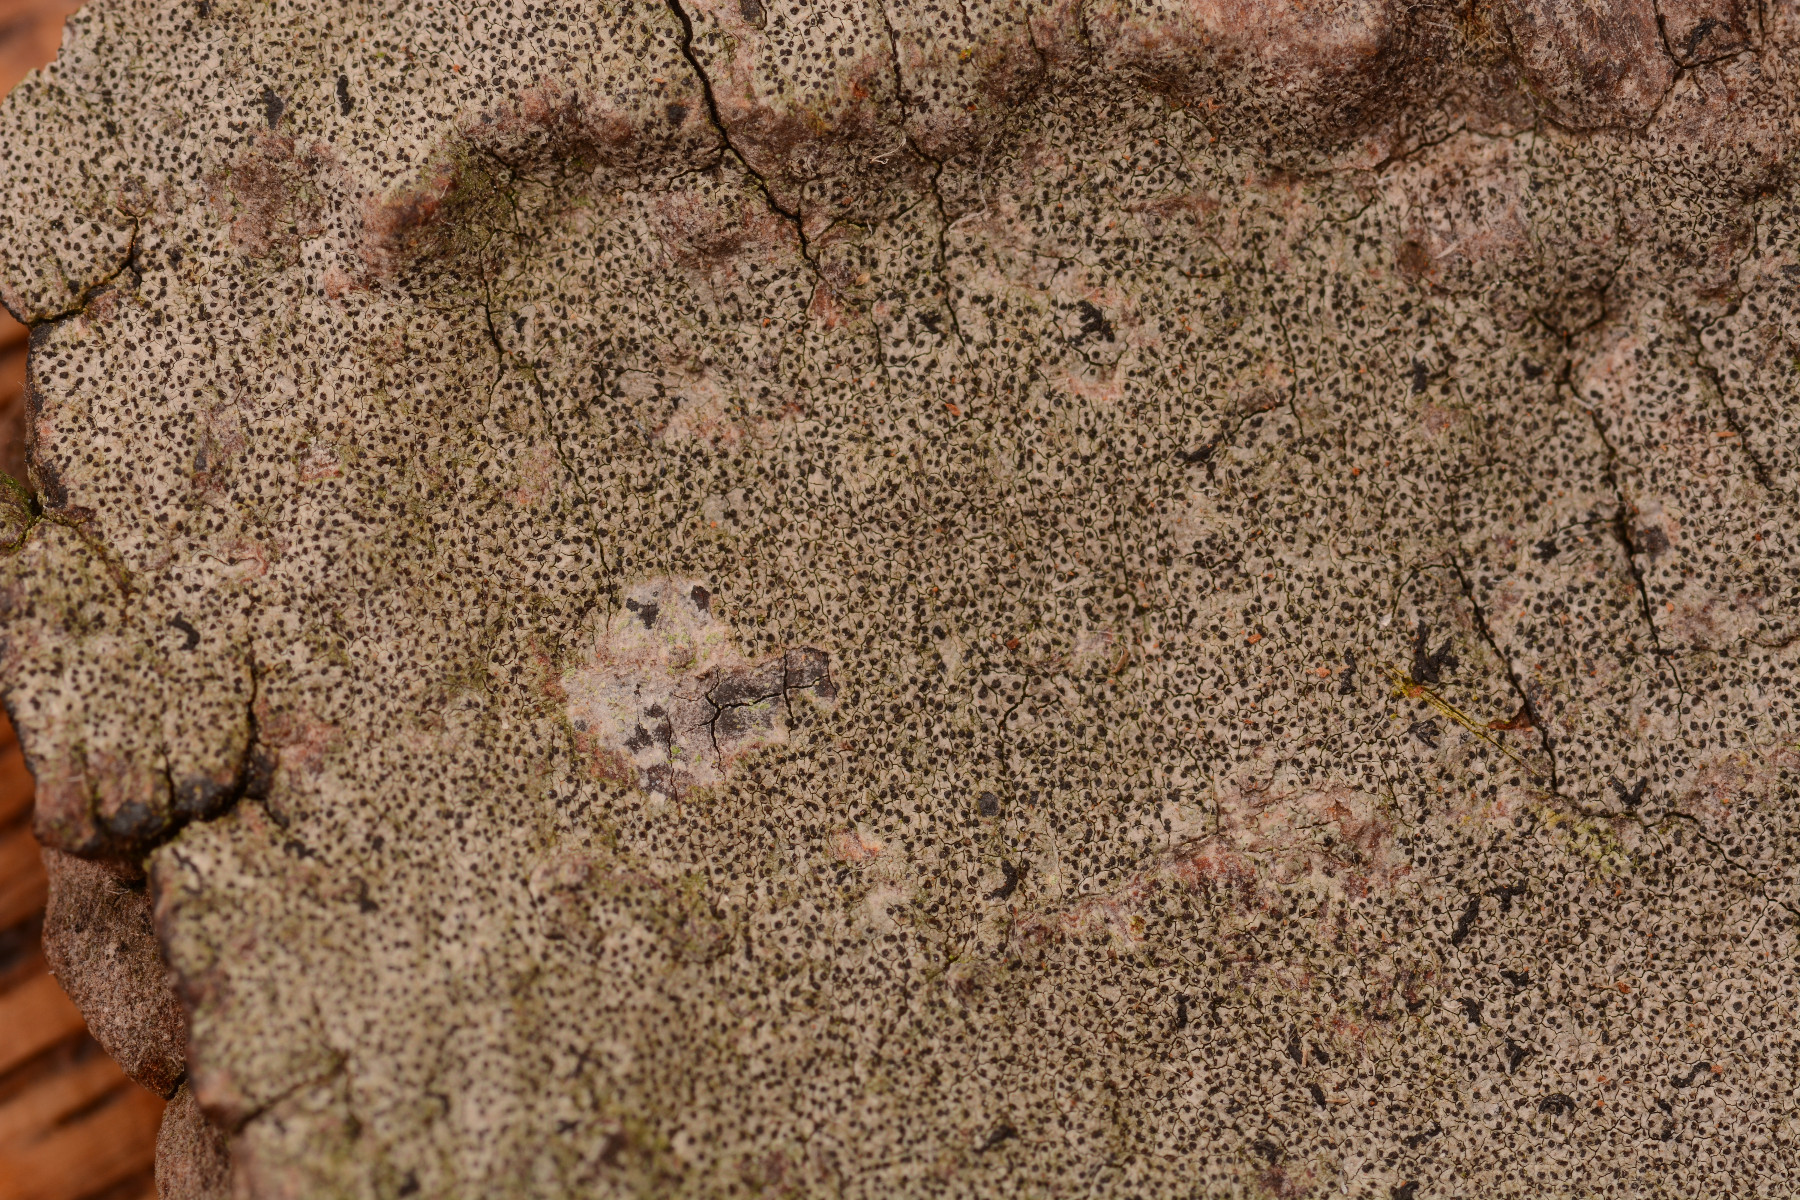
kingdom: Fungi
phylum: Ascomycota
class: Arthoniomycetes
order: Arthoniales
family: Opegraphaceae
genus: Opegrapha
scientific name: Opegrapha niveoatra
